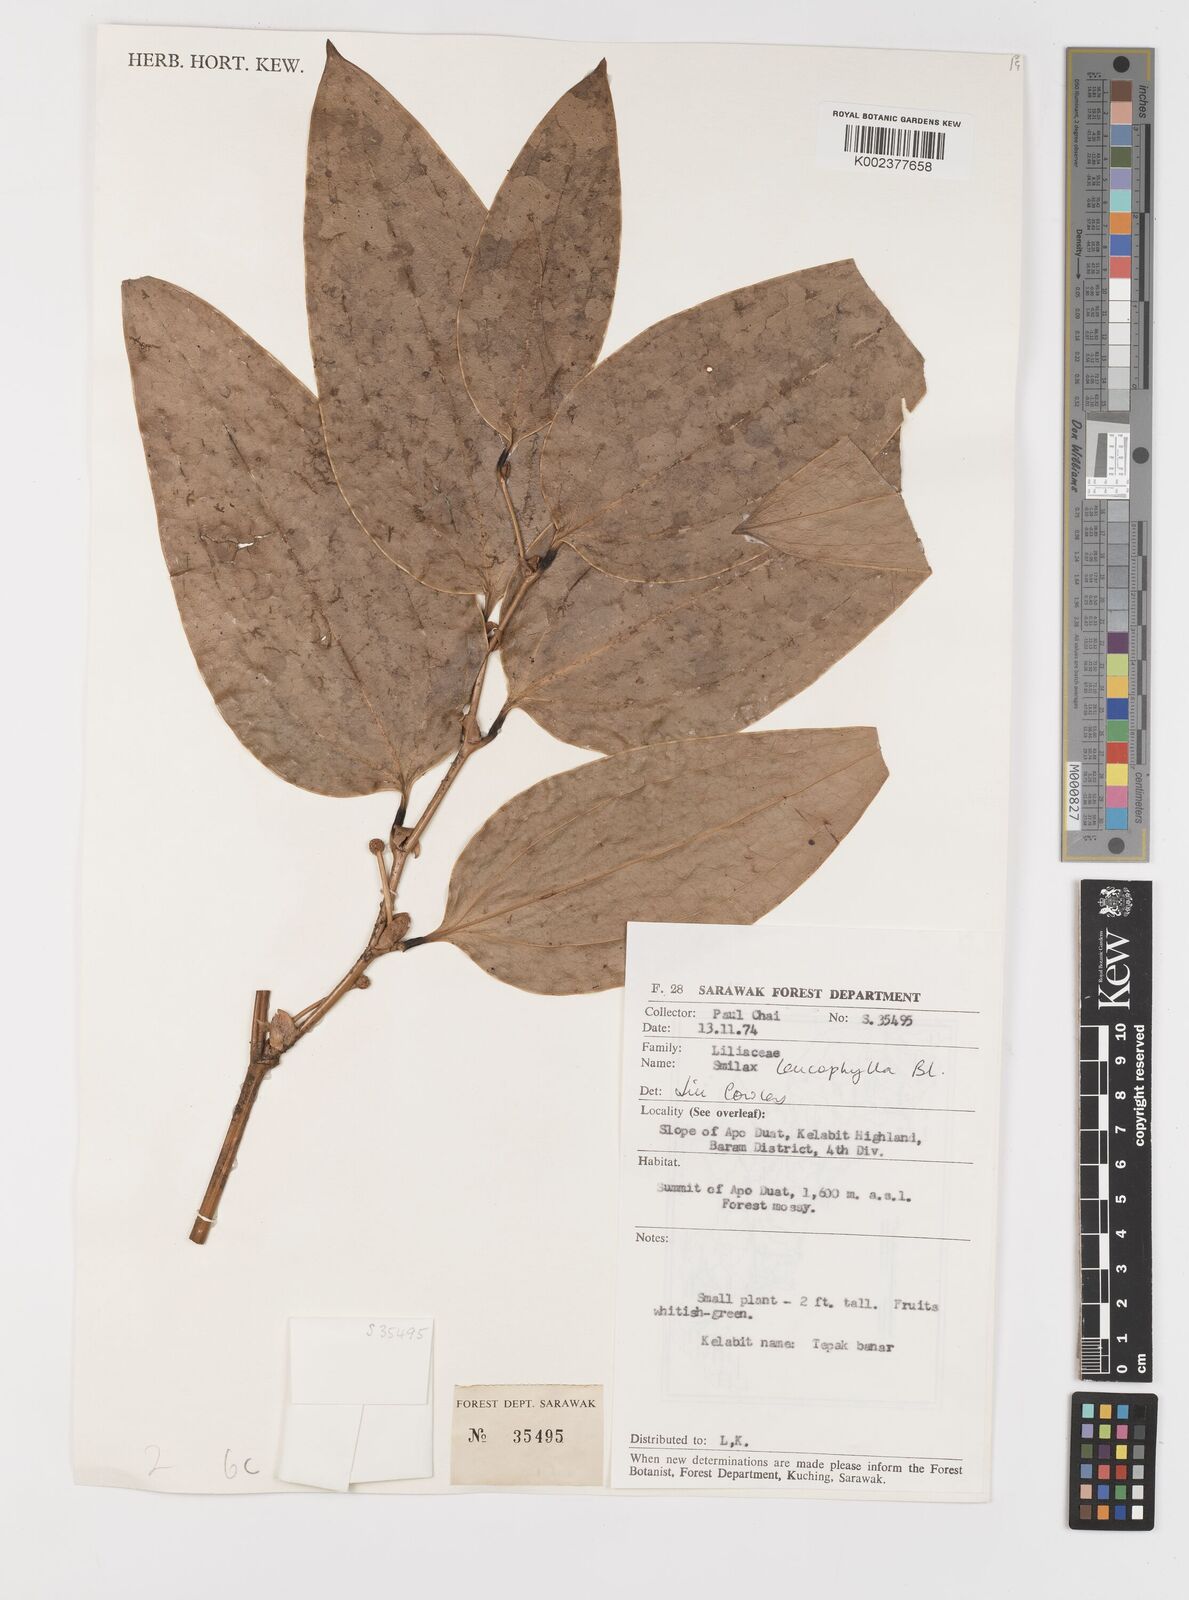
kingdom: Plantae
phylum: Tracheophyta
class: Liliopsida
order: Liliales
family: Smilacaceae
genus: Smilax
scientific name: Smilax leucophylla
